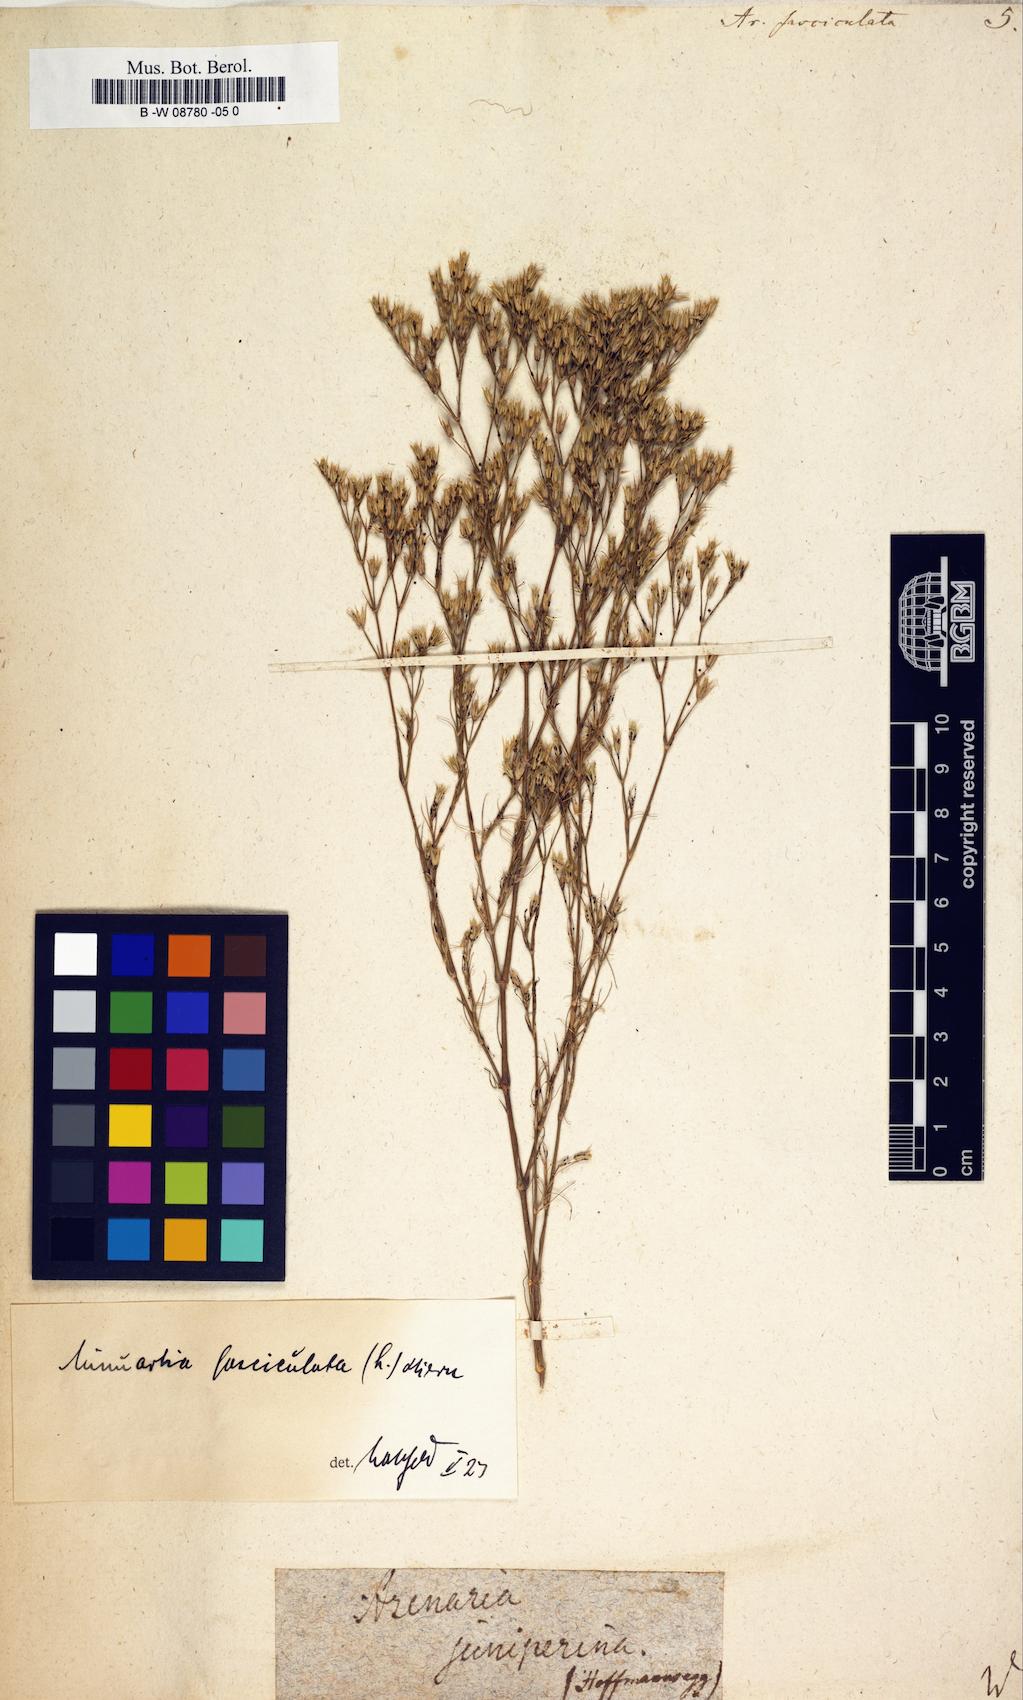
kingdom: Plantae
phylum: Tracheophyta
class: Magnoliopsida
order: Caryophyllales
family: Caryophyllaceae
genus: Minuartia
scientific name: Minuartia mucronata
